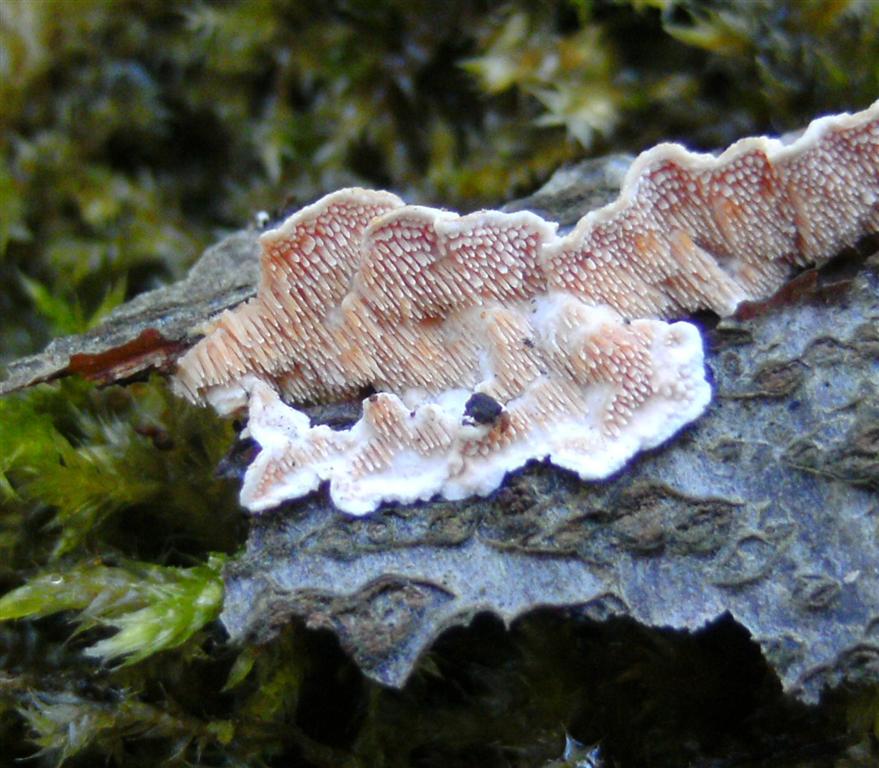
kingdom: Fungi
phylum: Basidiomycota
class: Agaricomycetes
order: Polyporales
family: Steccherinaceae
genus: Steccherinum
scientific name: Steccherinum ochraceum
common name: almindelig skønpig
